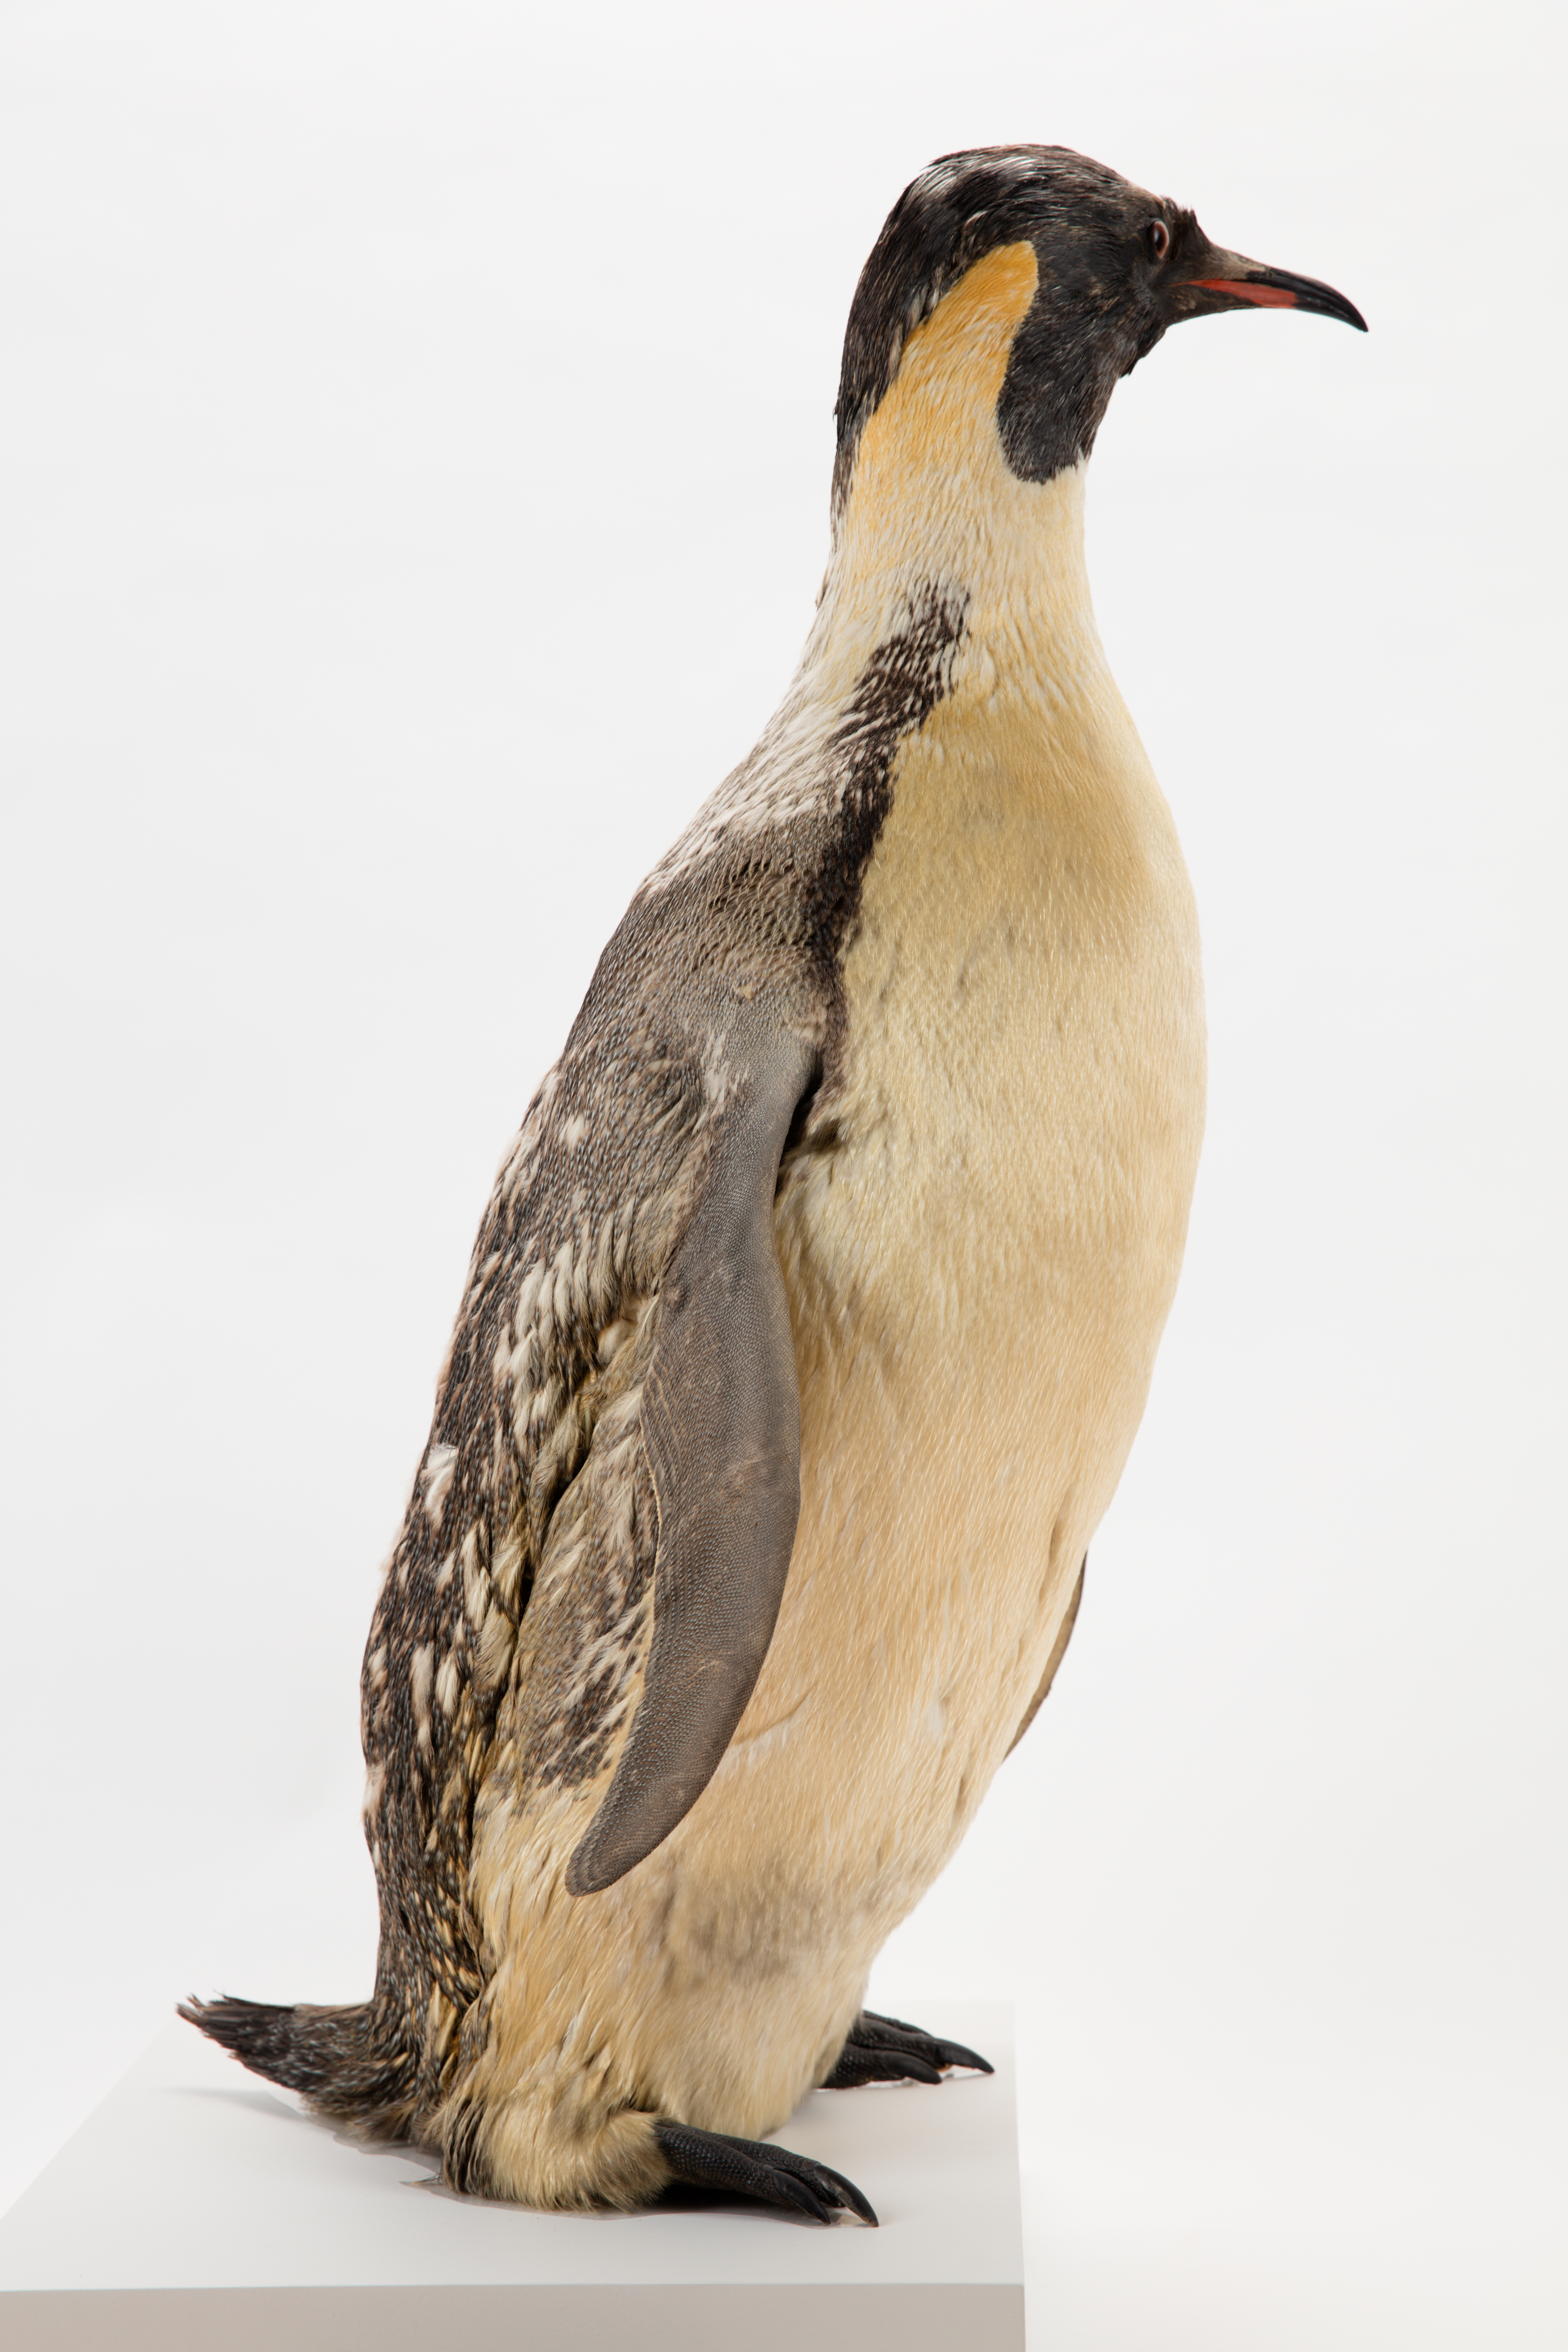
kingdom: Animalia
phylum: Chordata
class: Aves
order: Sphenisciformes
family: Spheniscidae
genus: Aptenodytes
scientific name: Aptenodytes forsteri
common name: Emperor penguin
